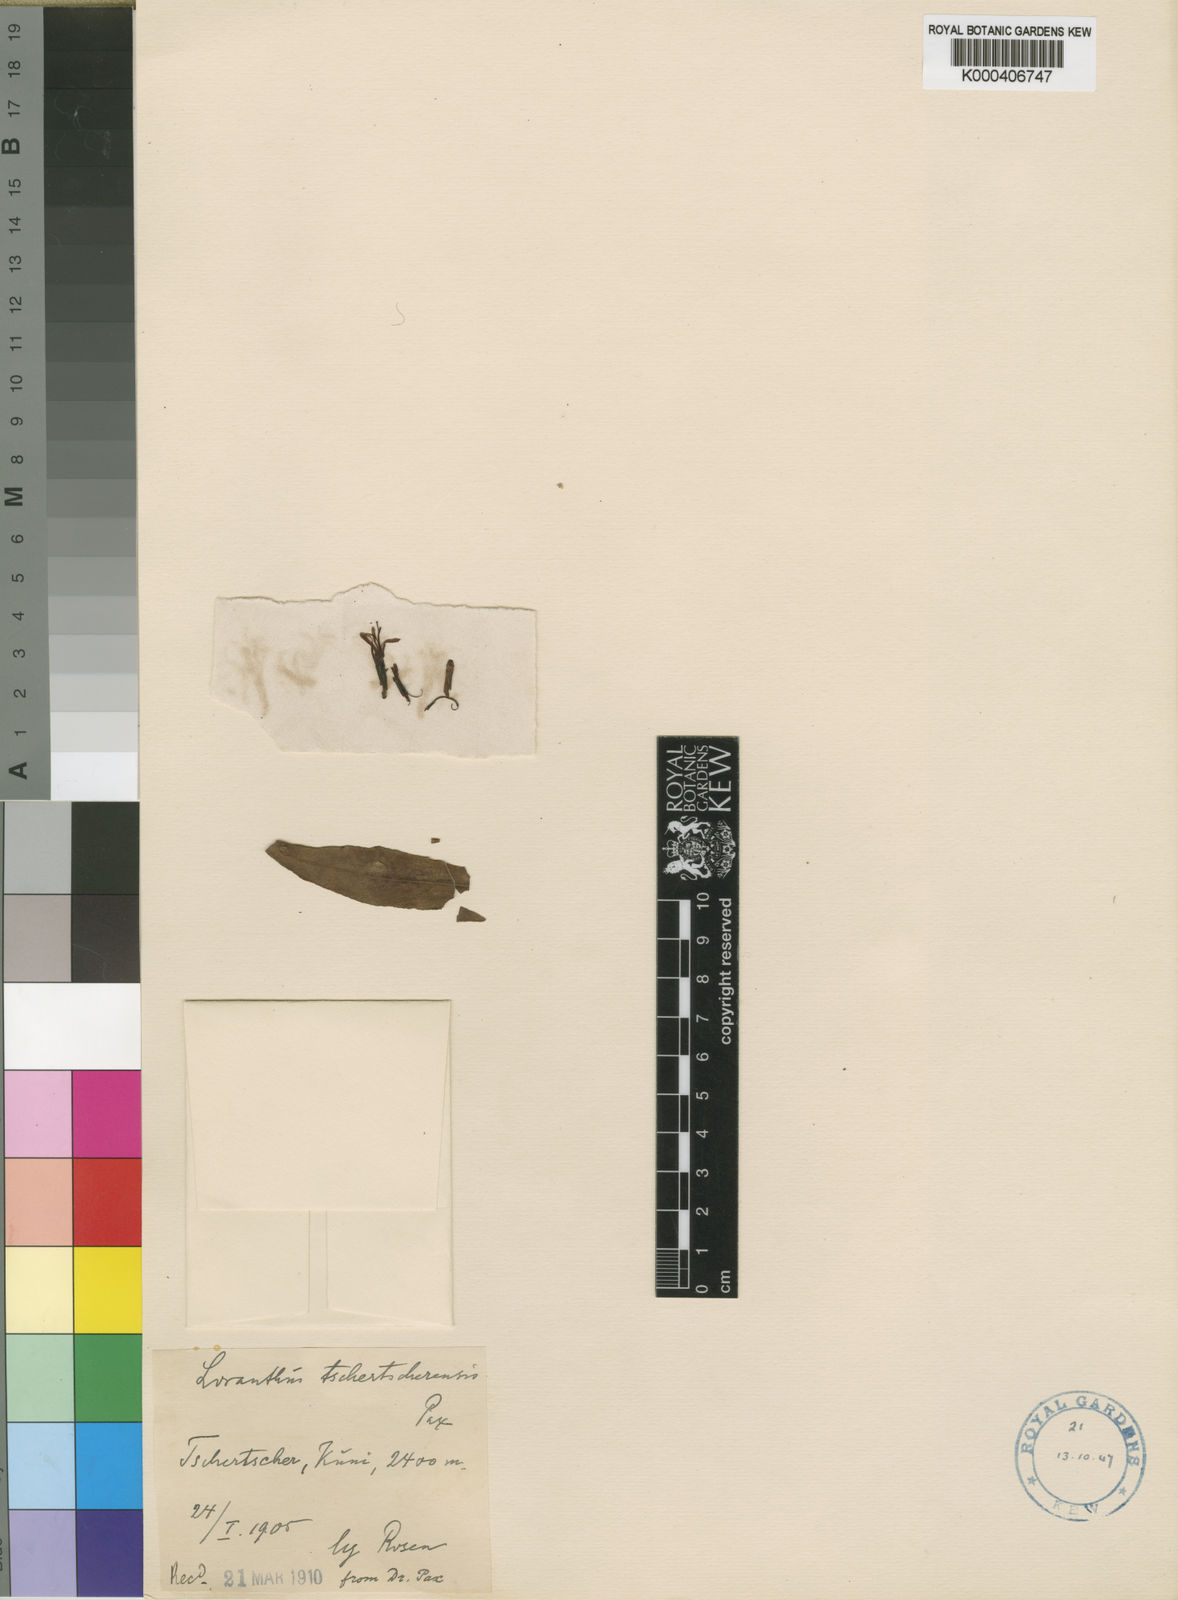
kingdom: Plantae
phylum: Tracheophyta
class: Magnoliopsida
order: Santalales
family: Loranthaceae
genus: Englerina
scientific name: Englerina woodfordioides
